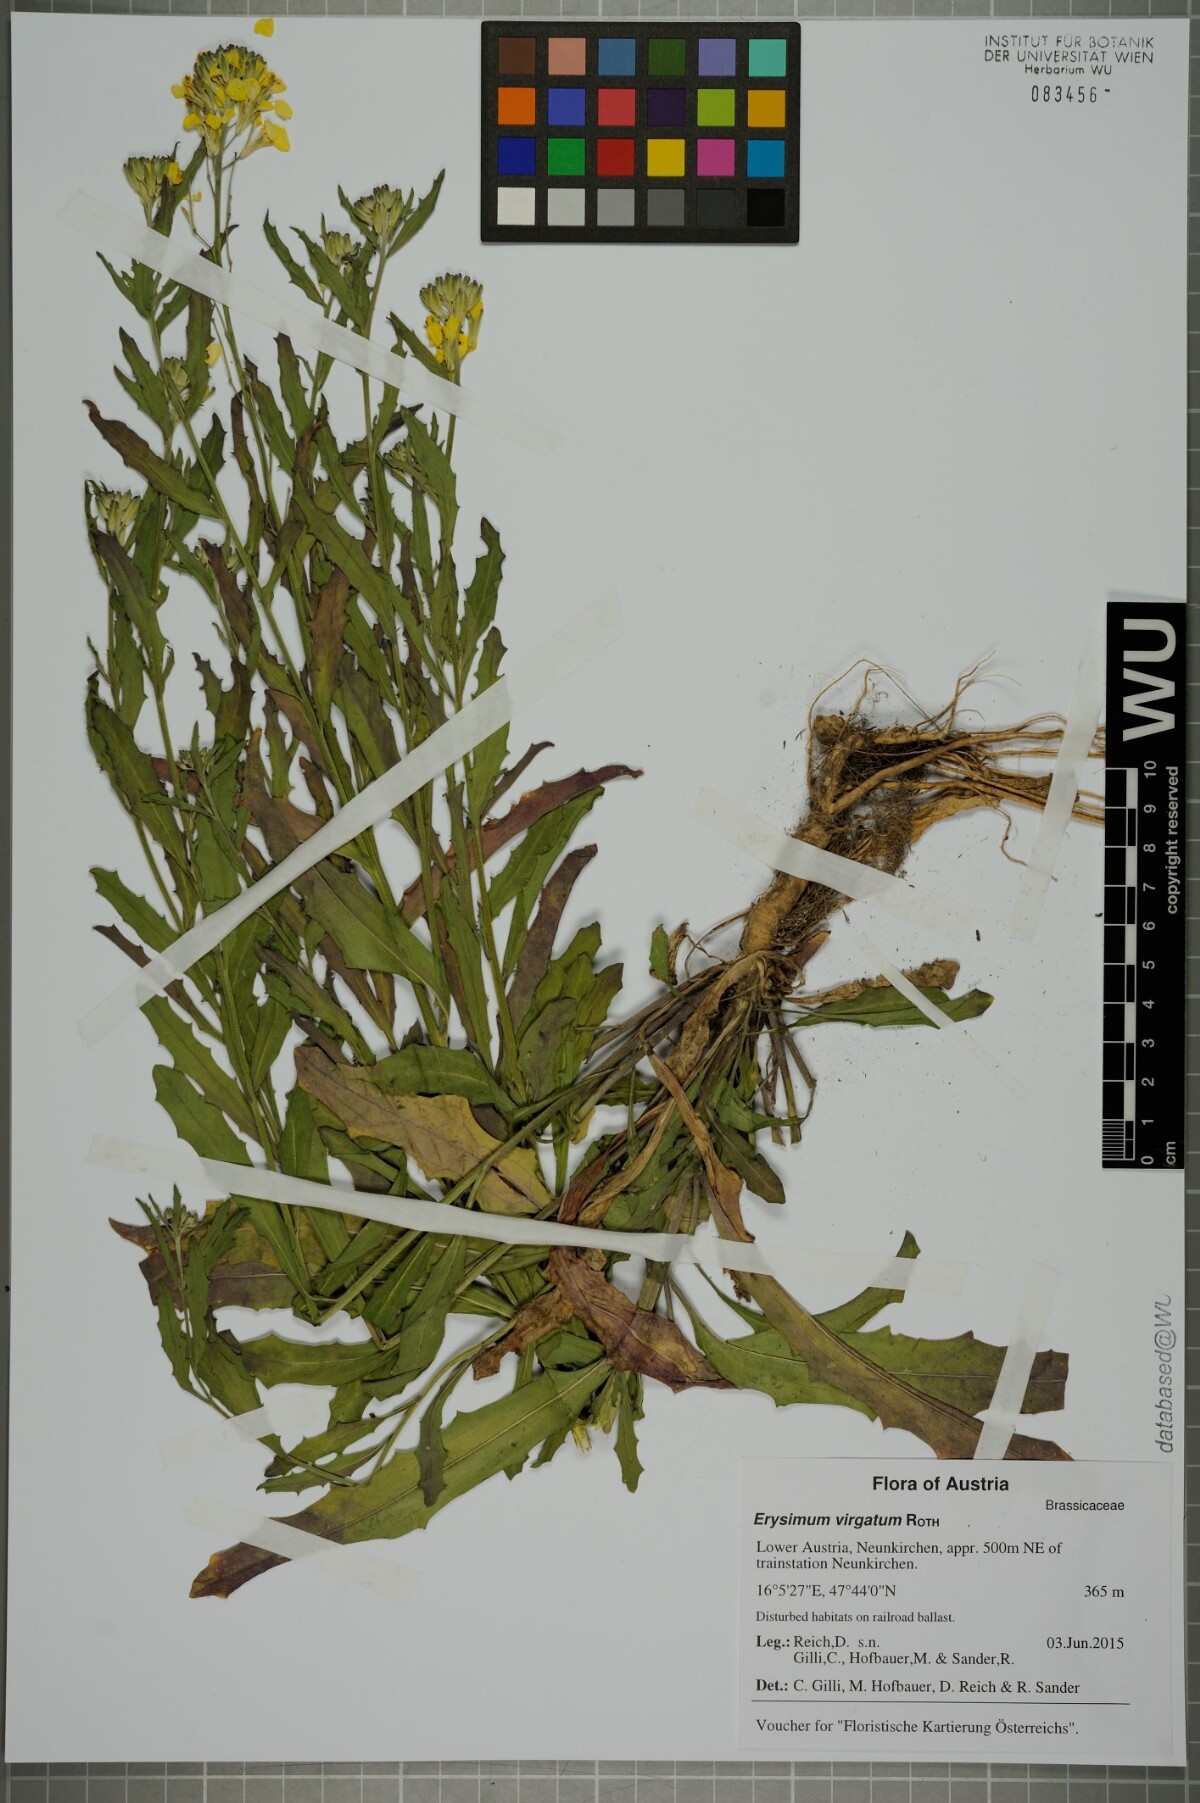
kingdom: Plantae
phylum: Tracheophyta
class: Magnoliopsida
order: Brassicales
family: Brassicaceae
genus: Erysimum
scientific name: Erysimum virgatum
